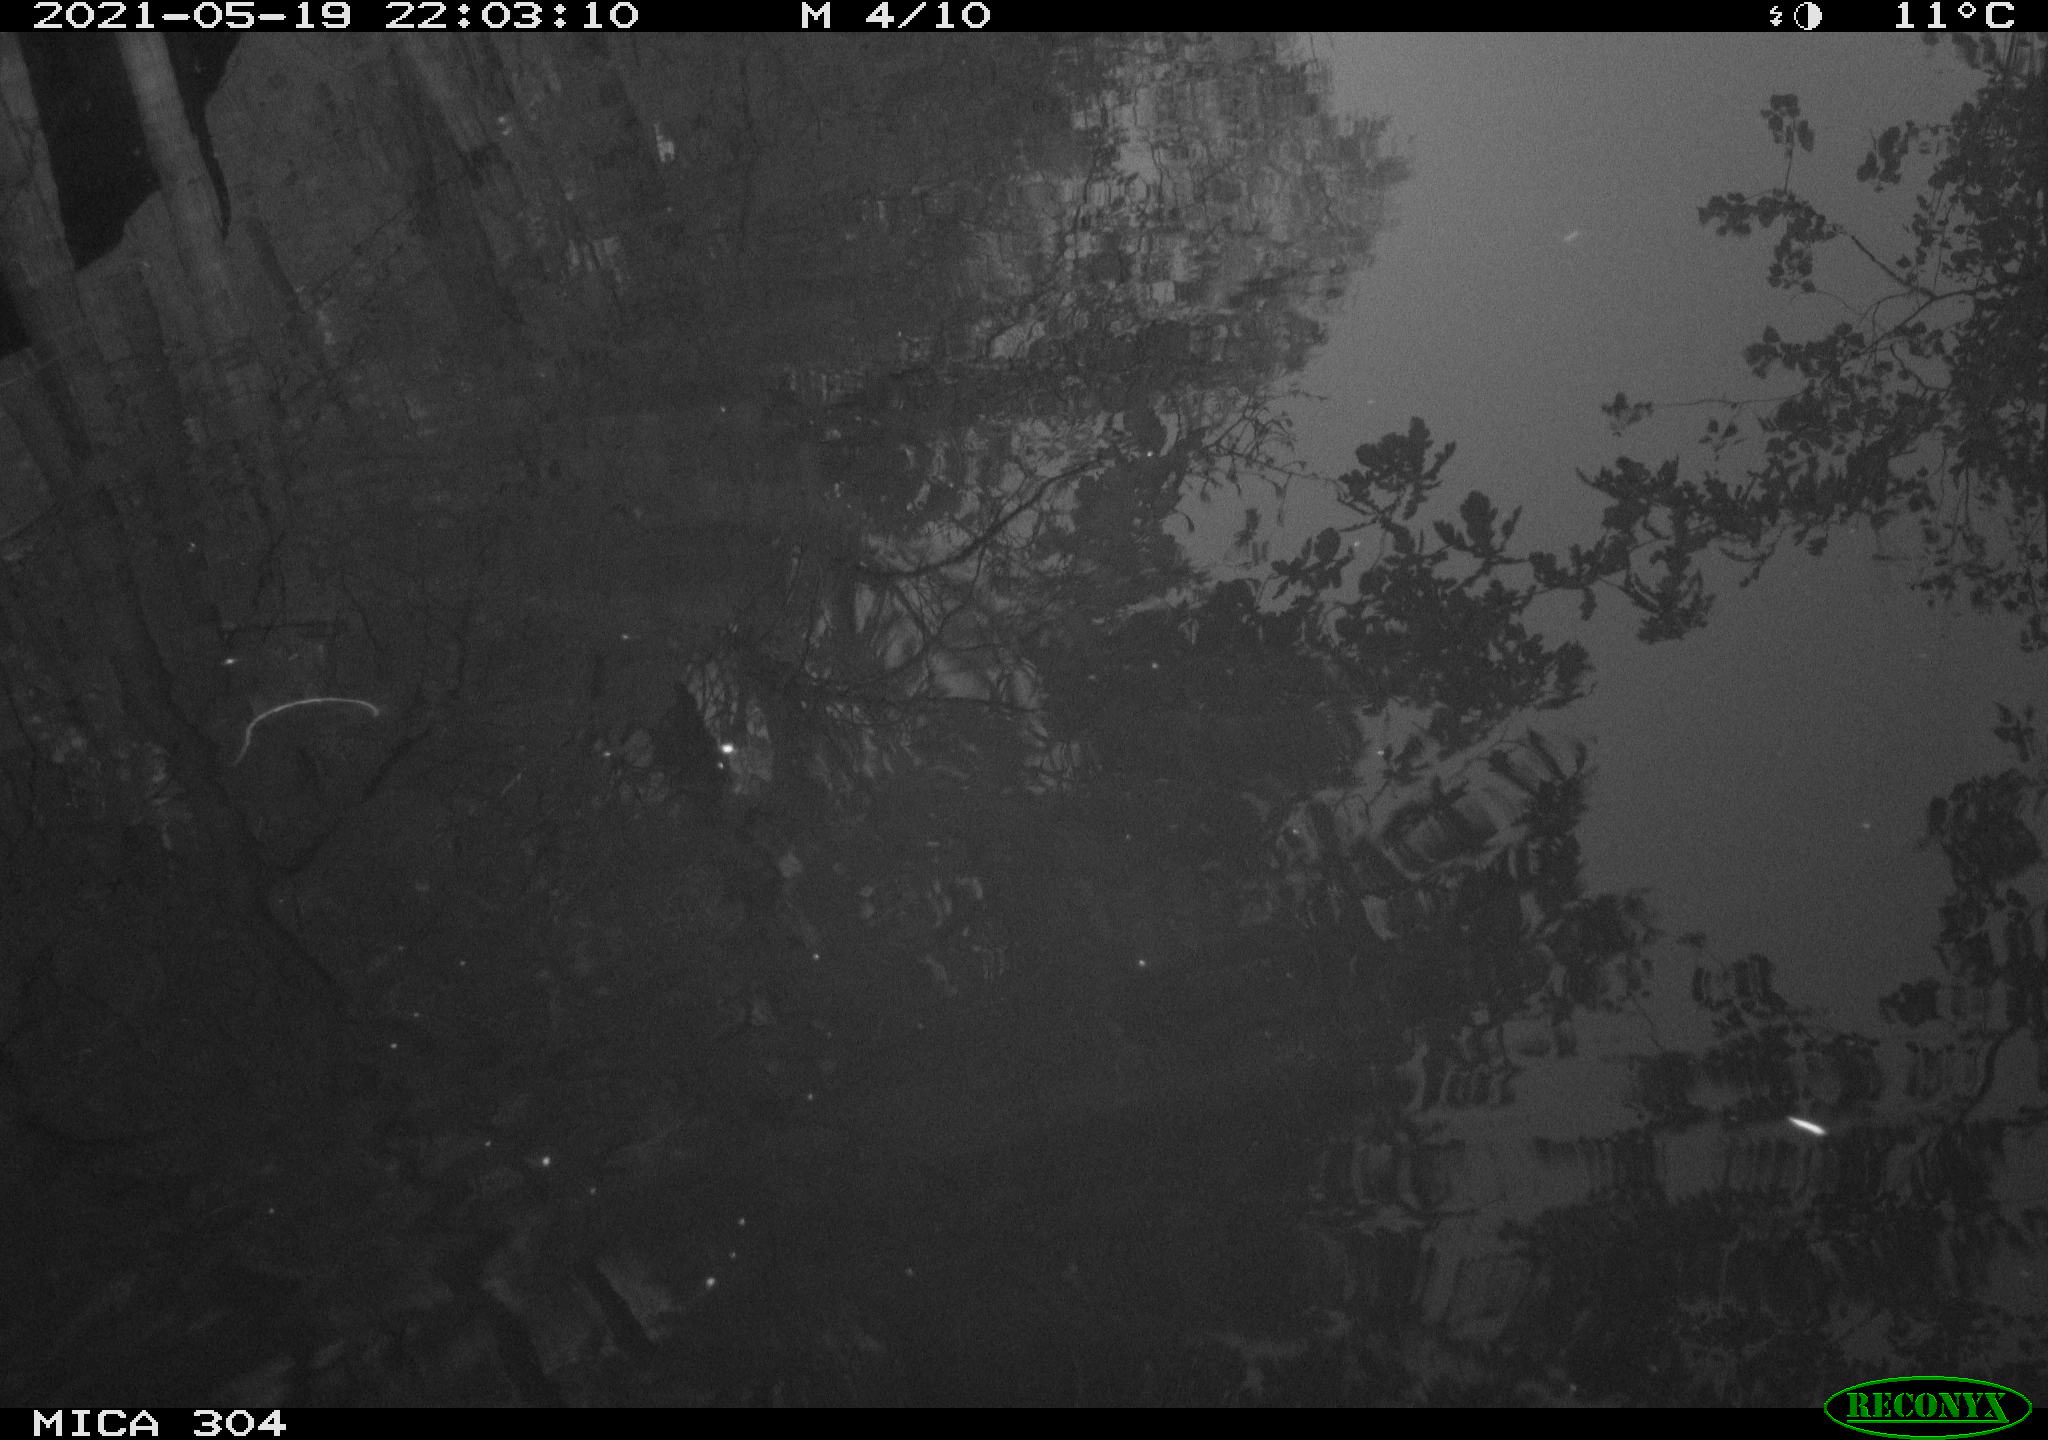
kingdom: Animalia
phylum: Chordata
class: Aves
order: Gruiformes
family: Rallidae
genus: Gallinula
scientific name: Gallinula chloropus
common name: Common moorhen
